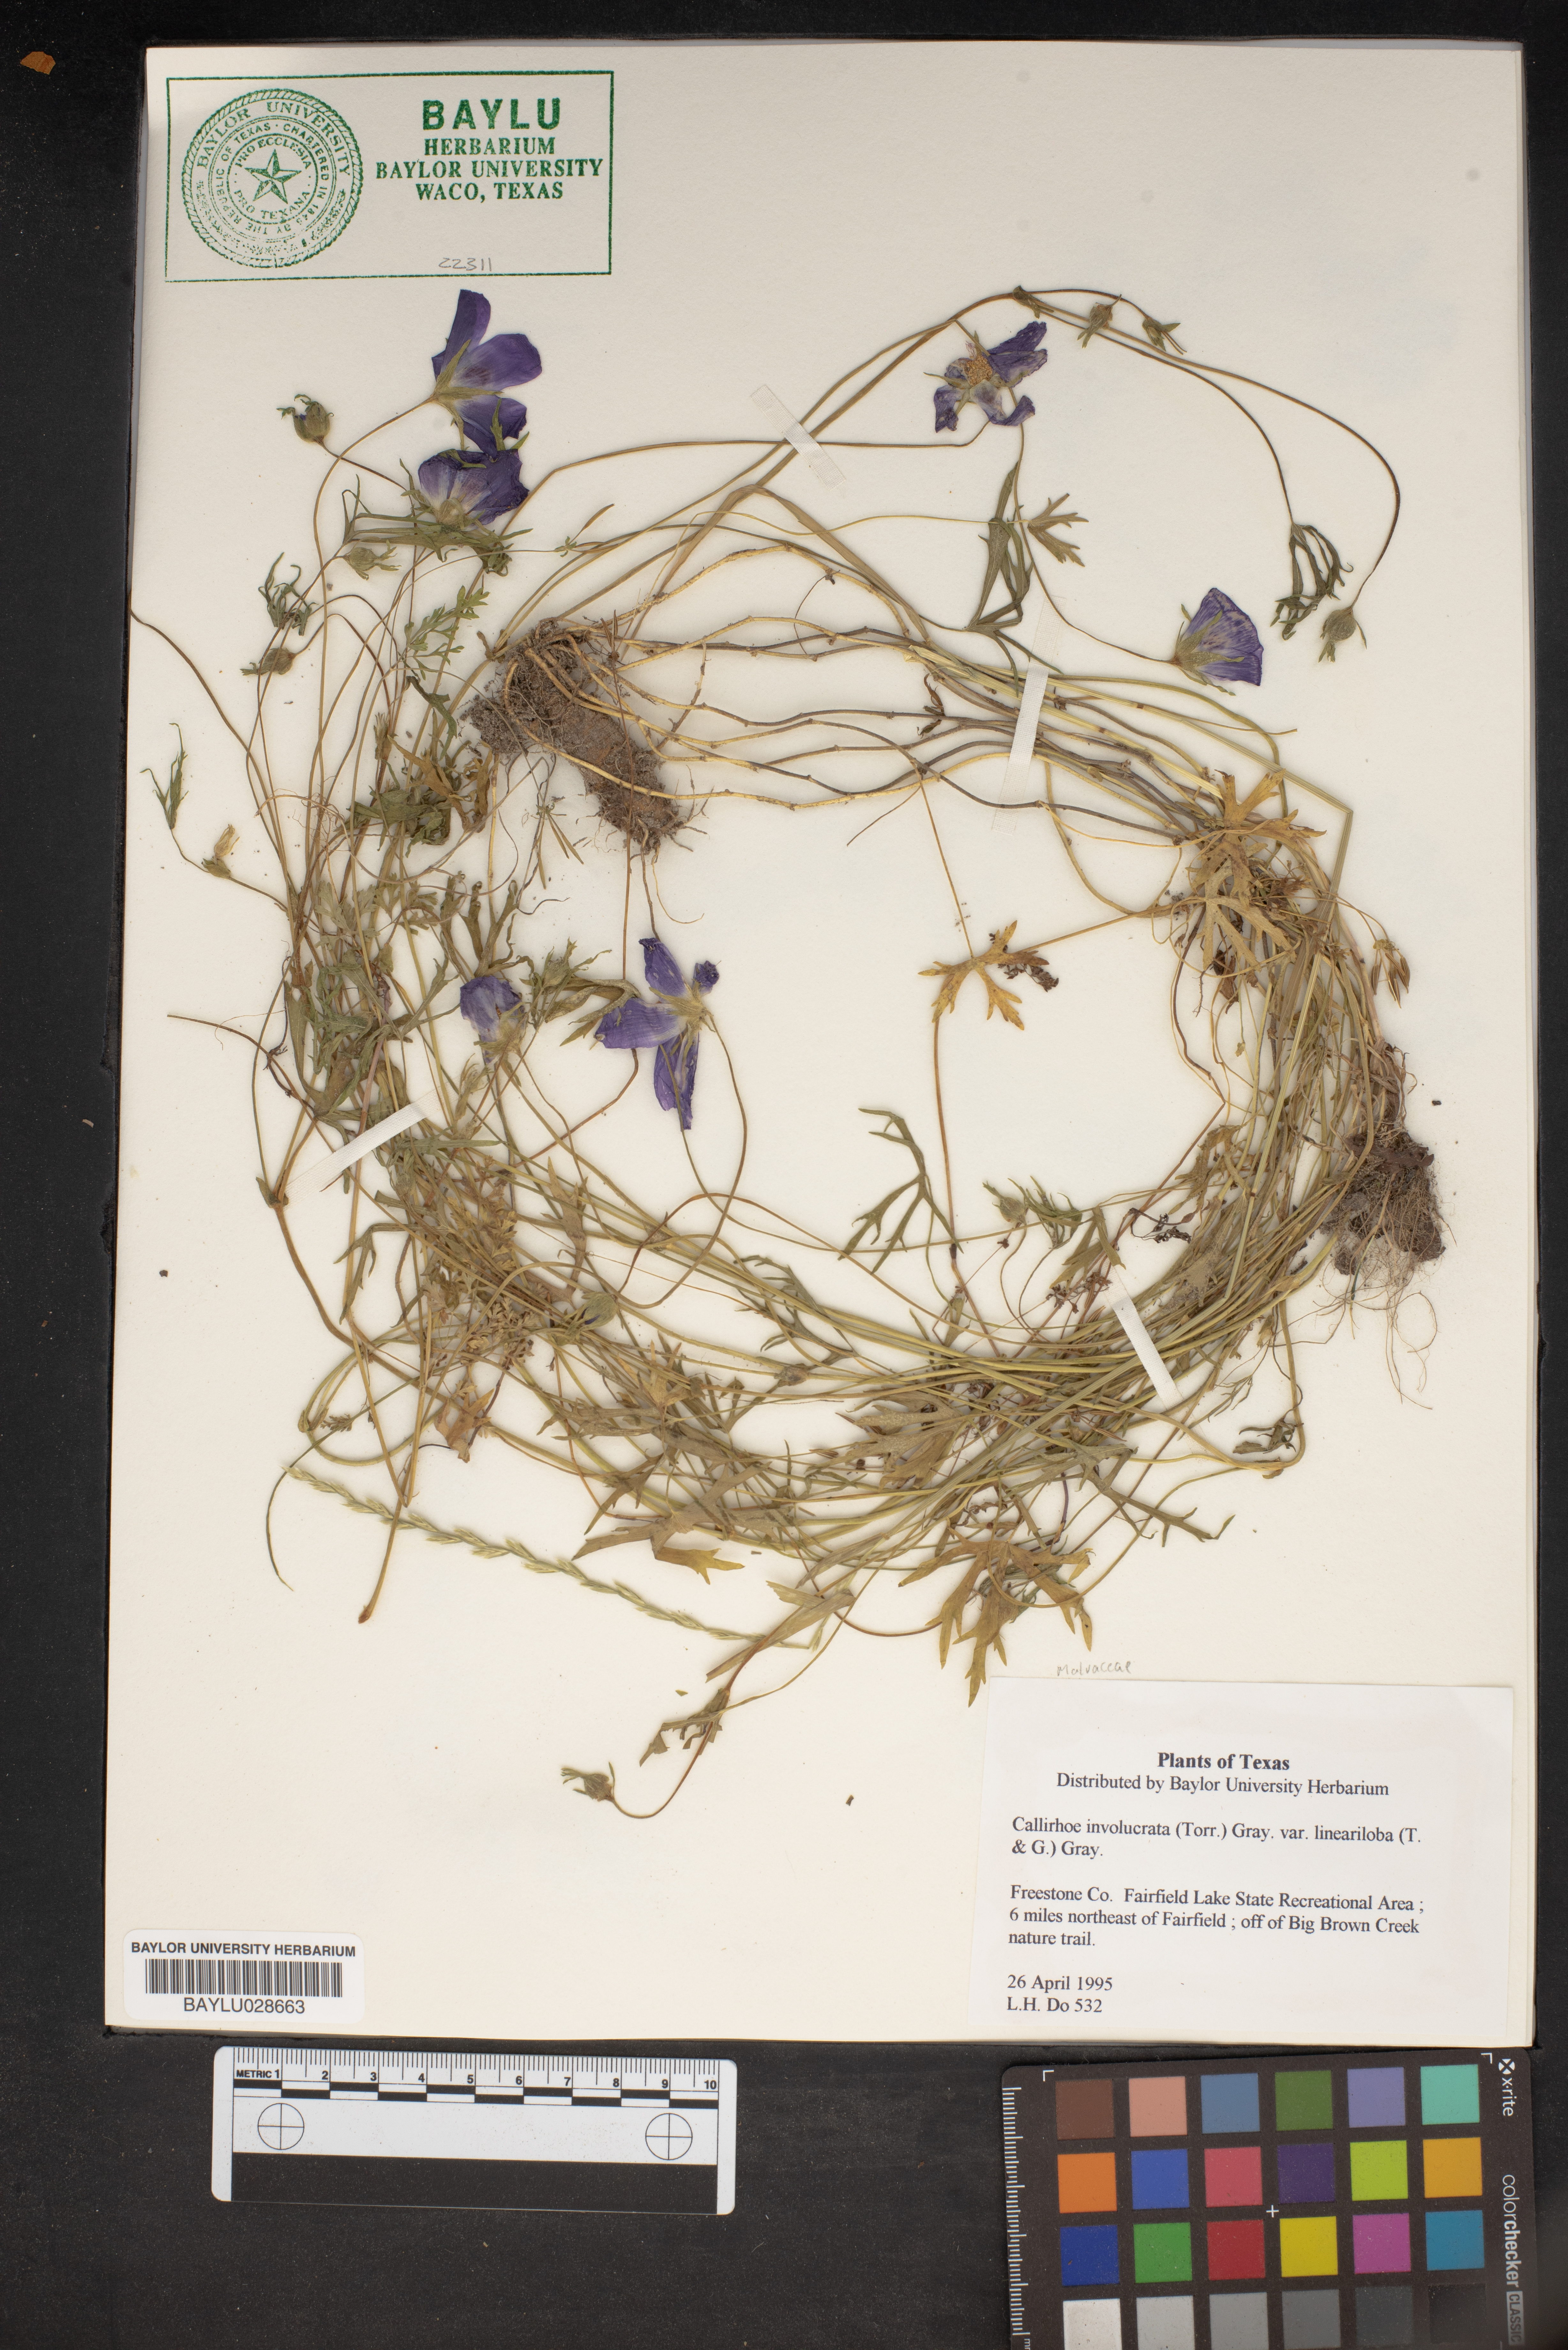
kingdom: Plantae
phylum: Tracheophyta
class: Magnoliopsida
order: Malvales
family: Malvaceae
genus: Callirhoe
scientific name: Callirhoe involucrata
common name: Purple poppy-mallow
